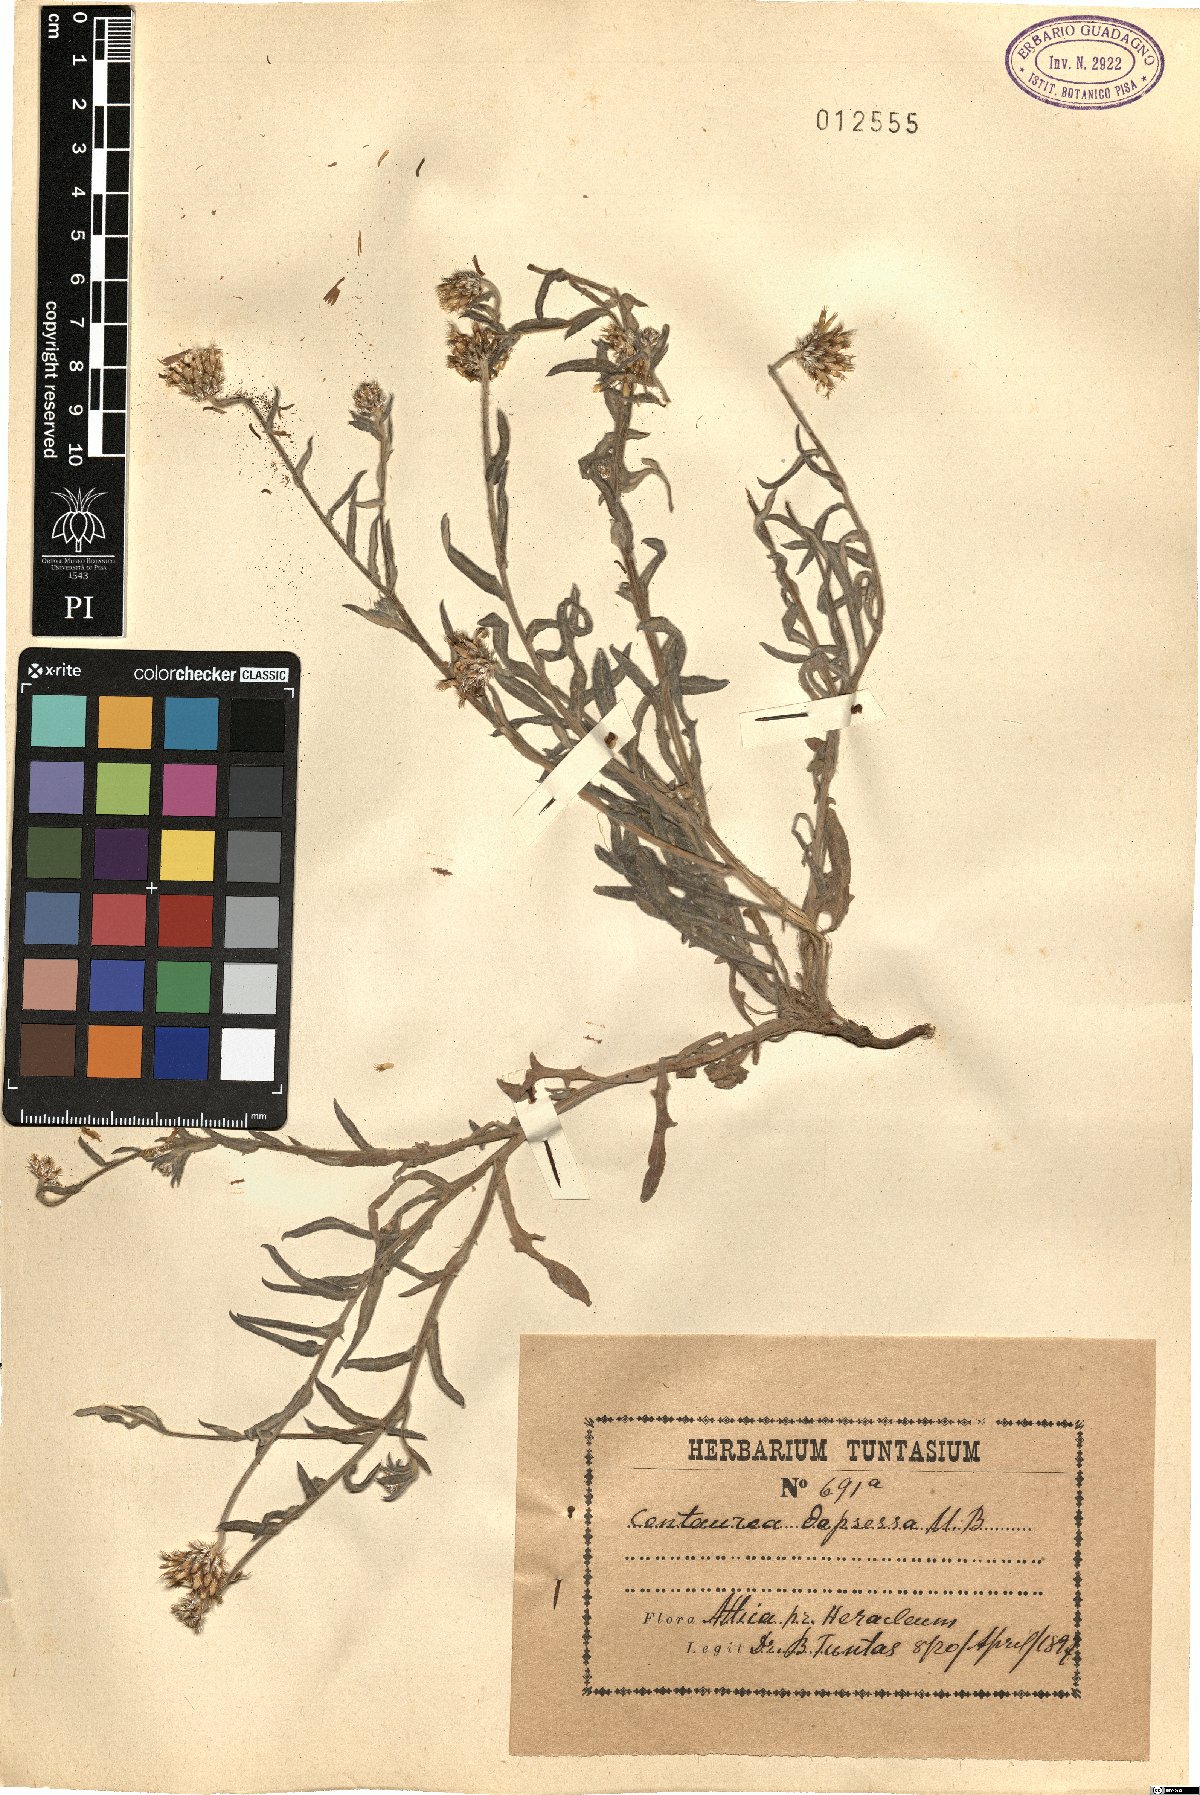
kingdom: Plantae
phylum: Tracheophyta
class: Magnoliopsida
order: Asterales
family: Asteraceae
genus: Centaurea
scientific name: Centaurea depressa
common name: Iranian knapweed
